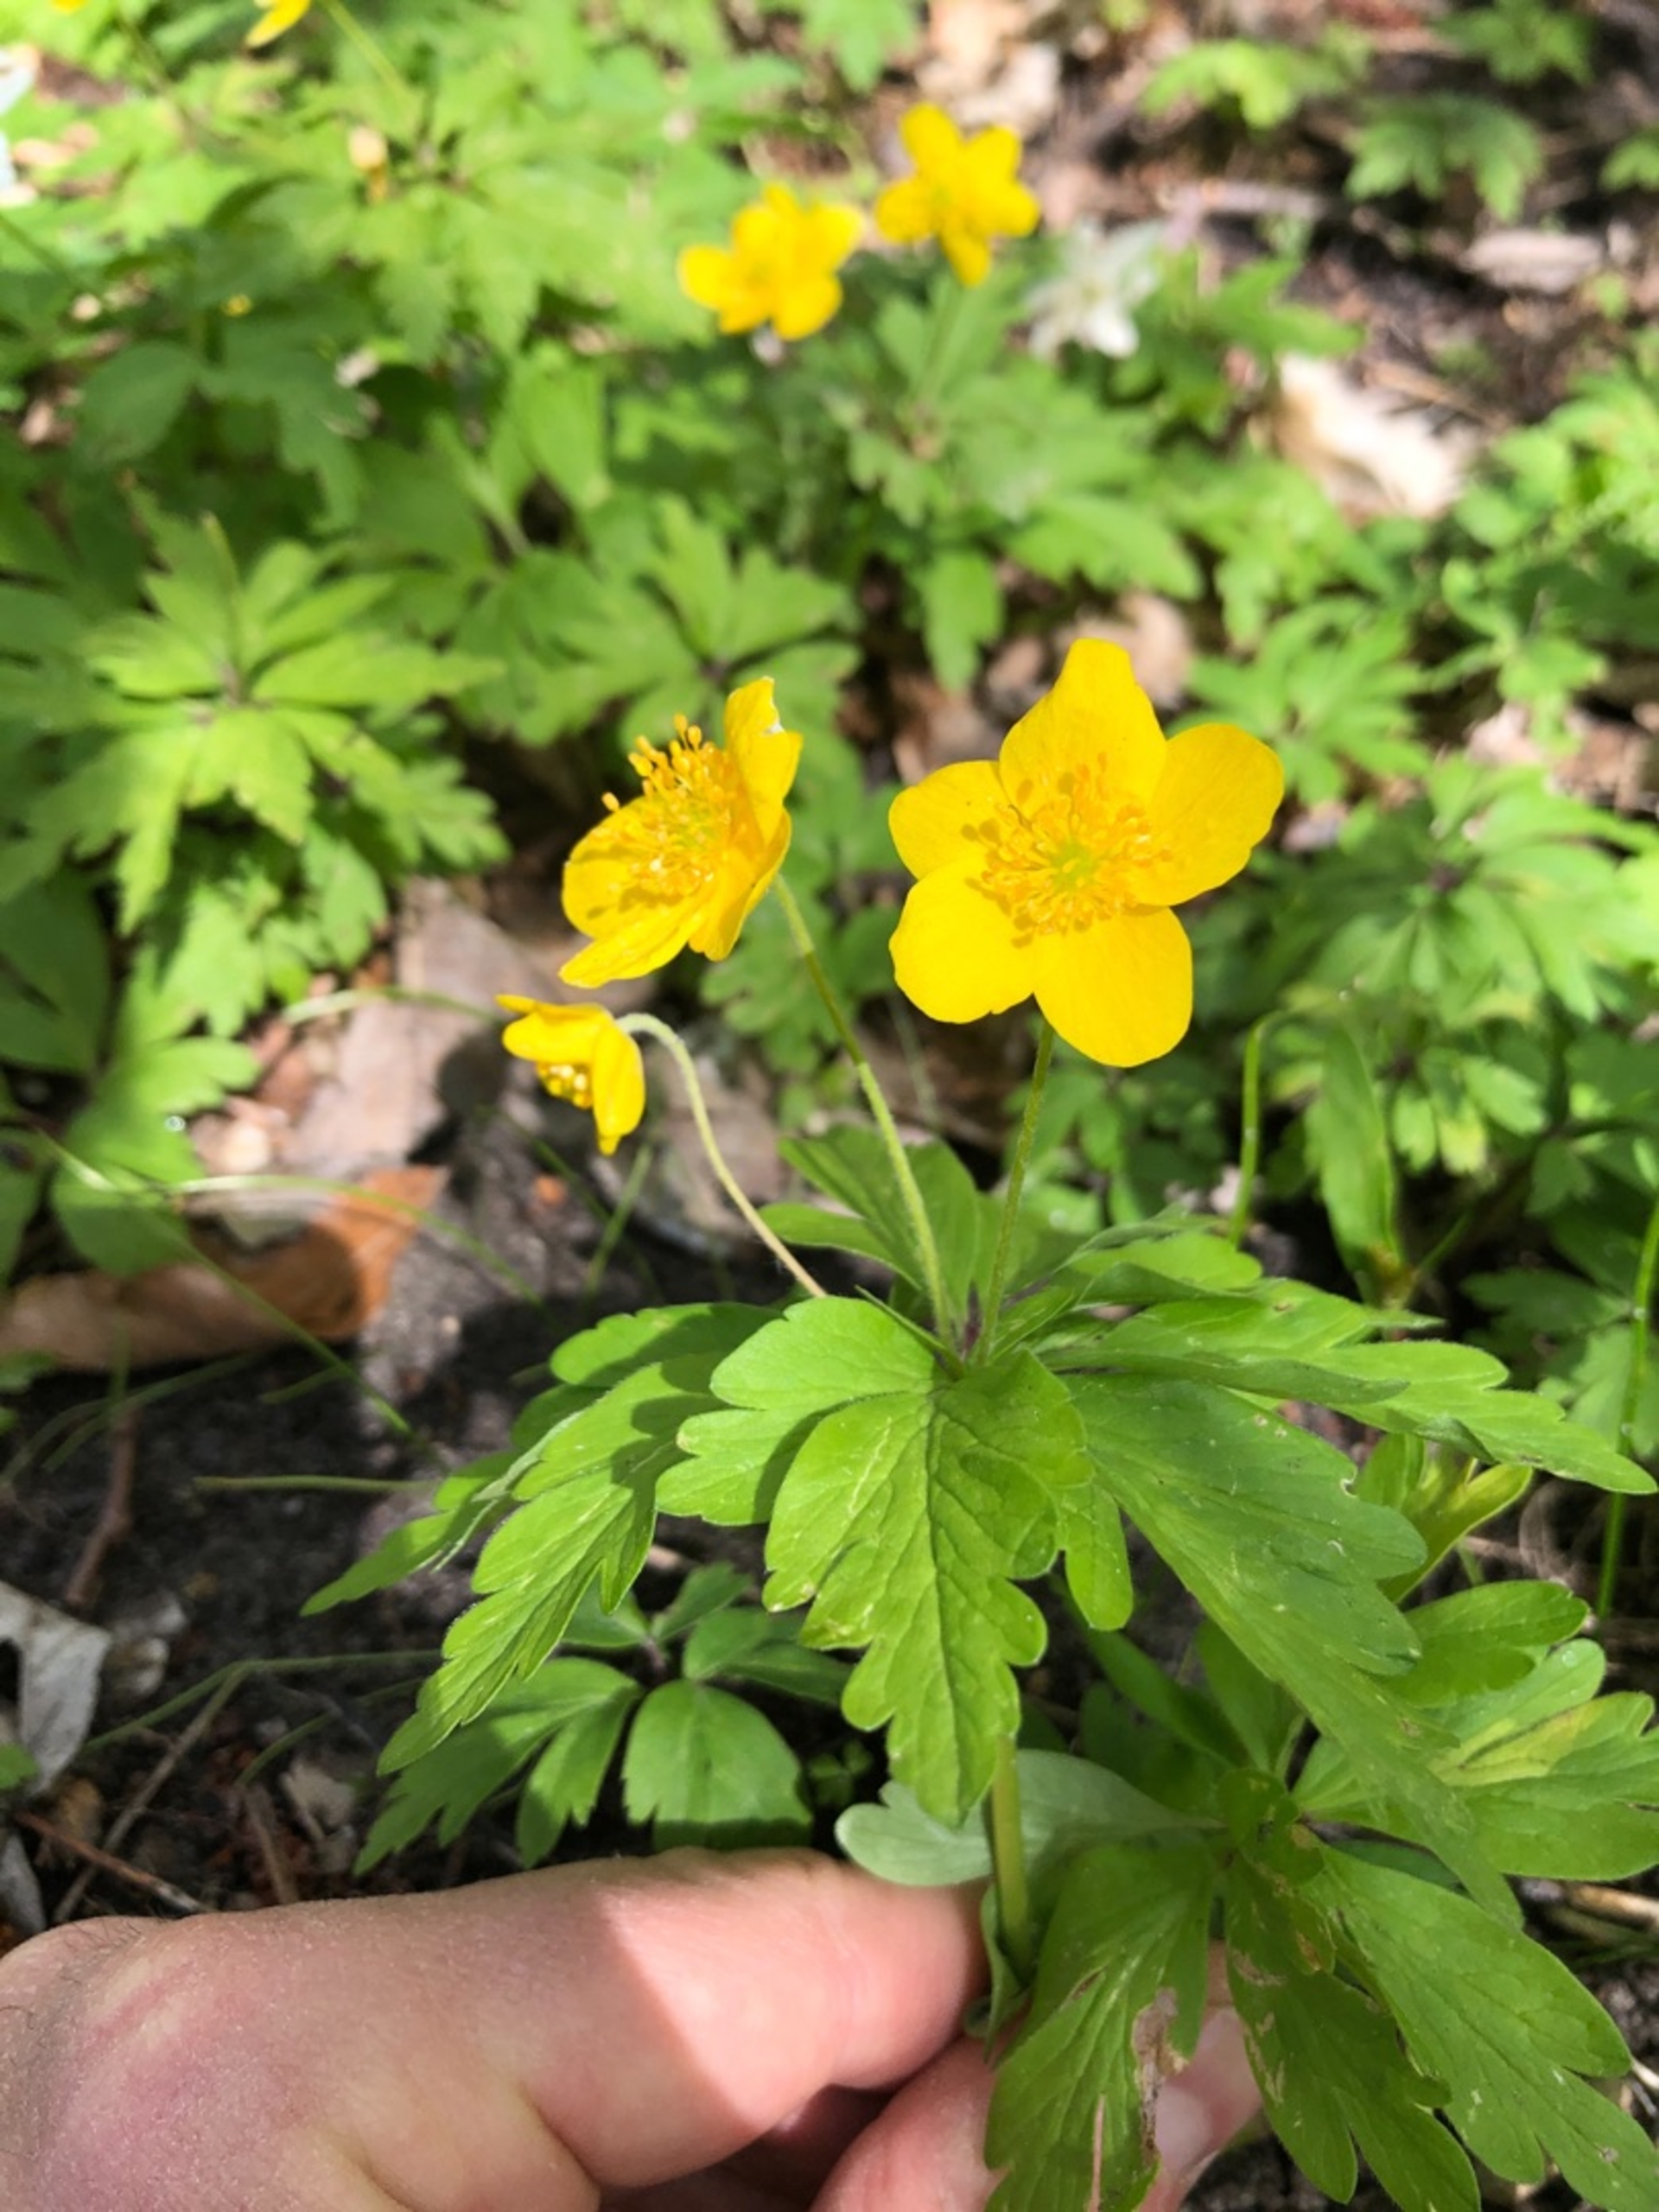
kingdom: Plantae
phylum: Tracheophyta
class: Magnoliopsida
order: Ranunculales
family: Ranunculaceae
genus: Anemone
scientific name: Anemone ranunculoides
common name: Gul anemone
